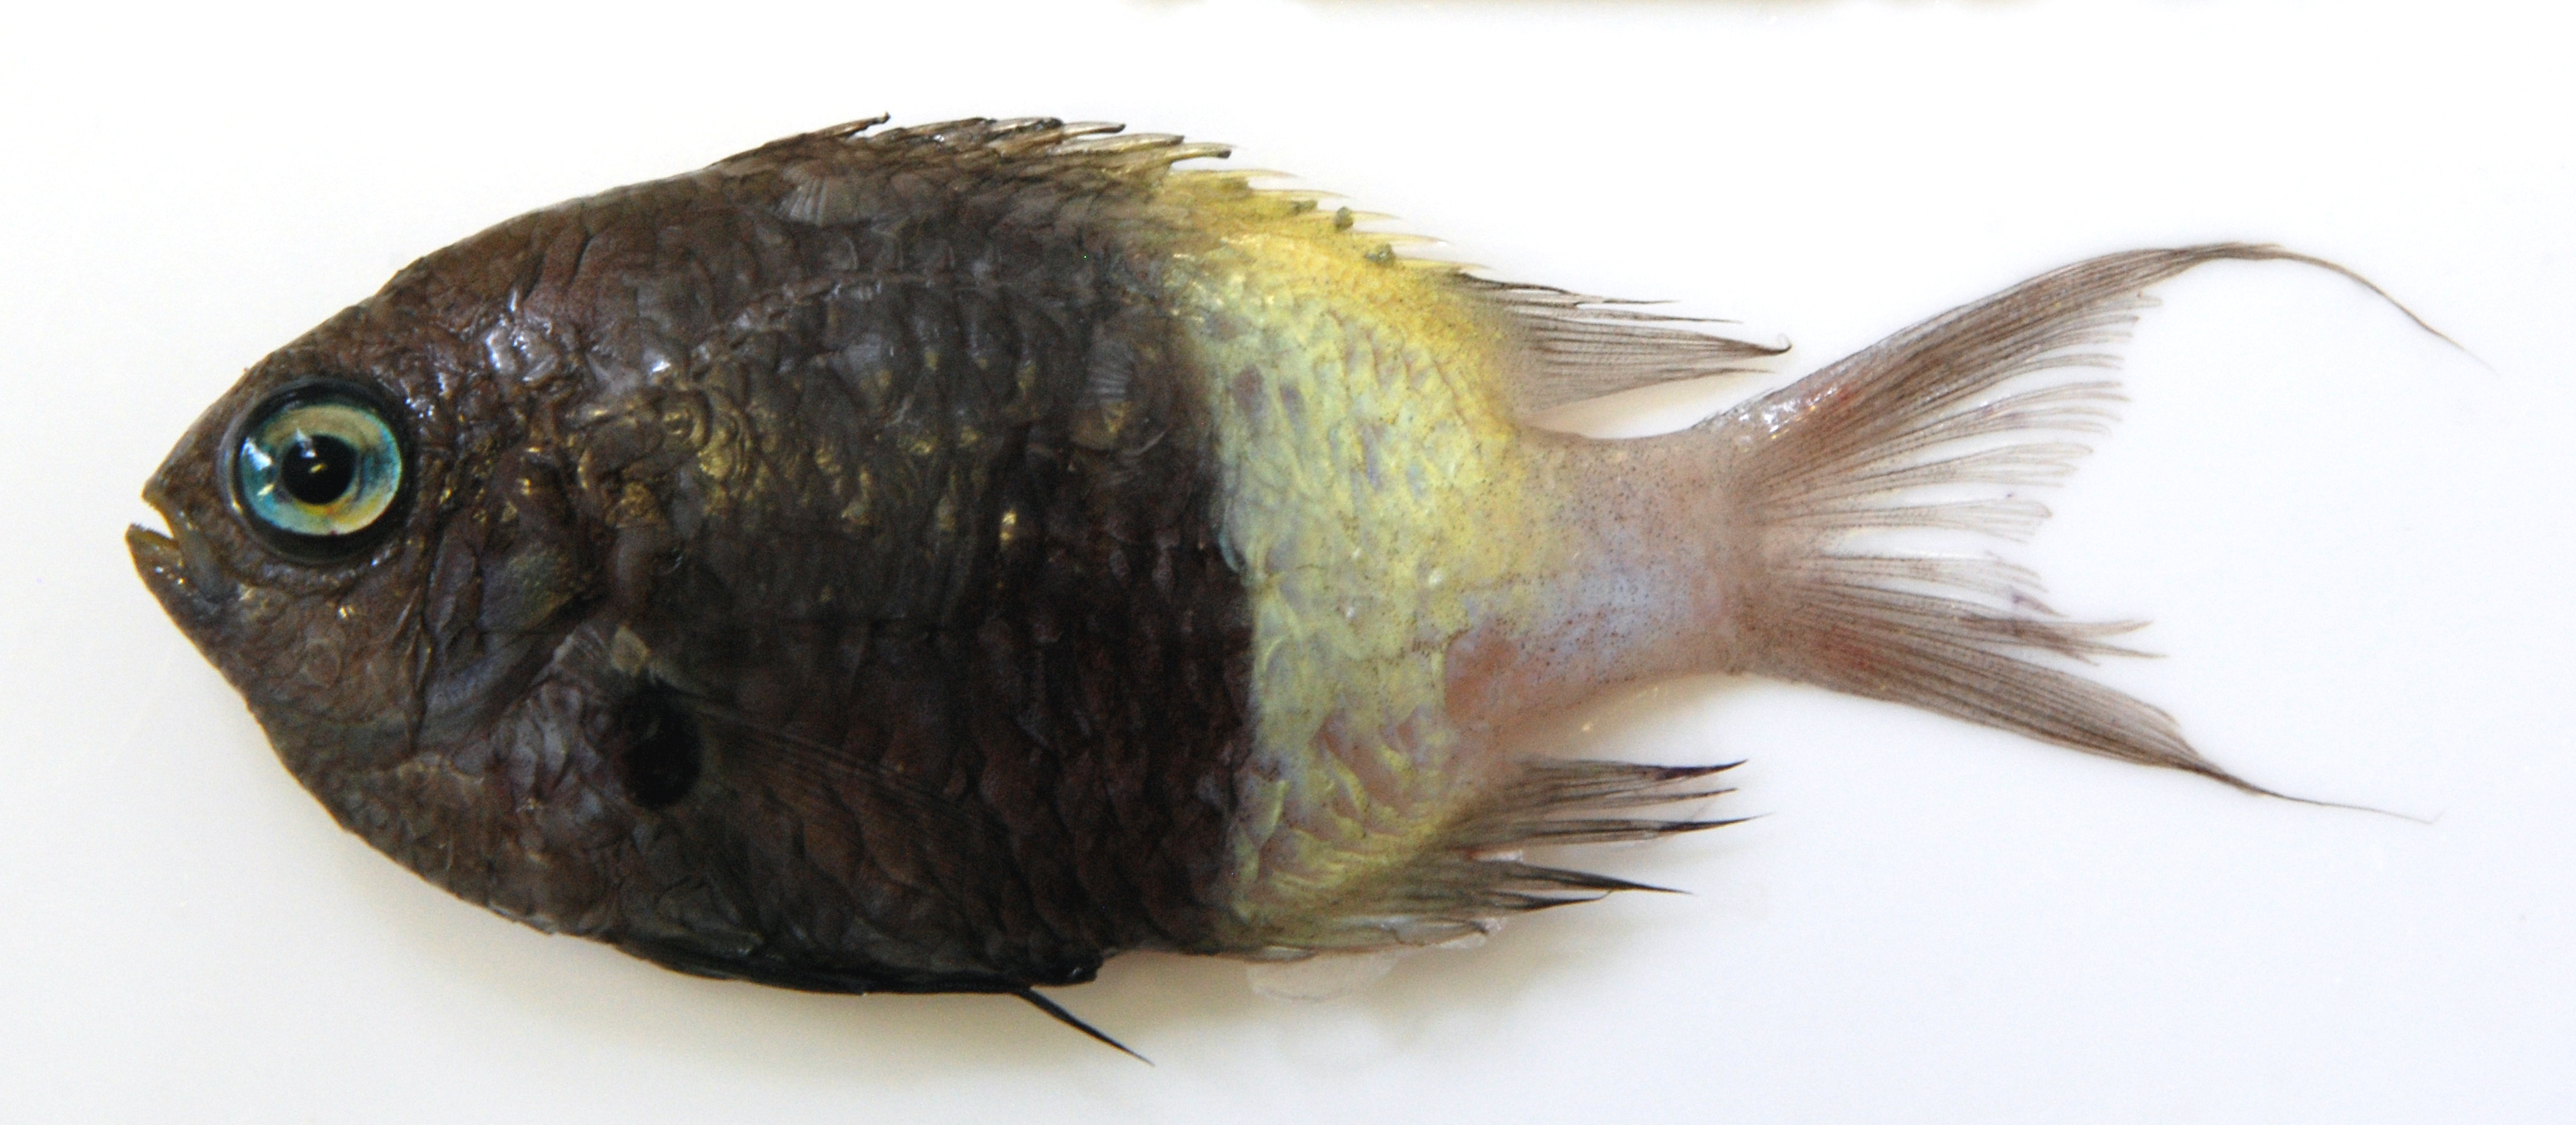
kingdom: Animalia
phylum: Chordata
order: Perciformes
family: Pomacentridae
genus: Chromis
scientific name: Chromis dimidiata
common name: Half-and-half chromis
